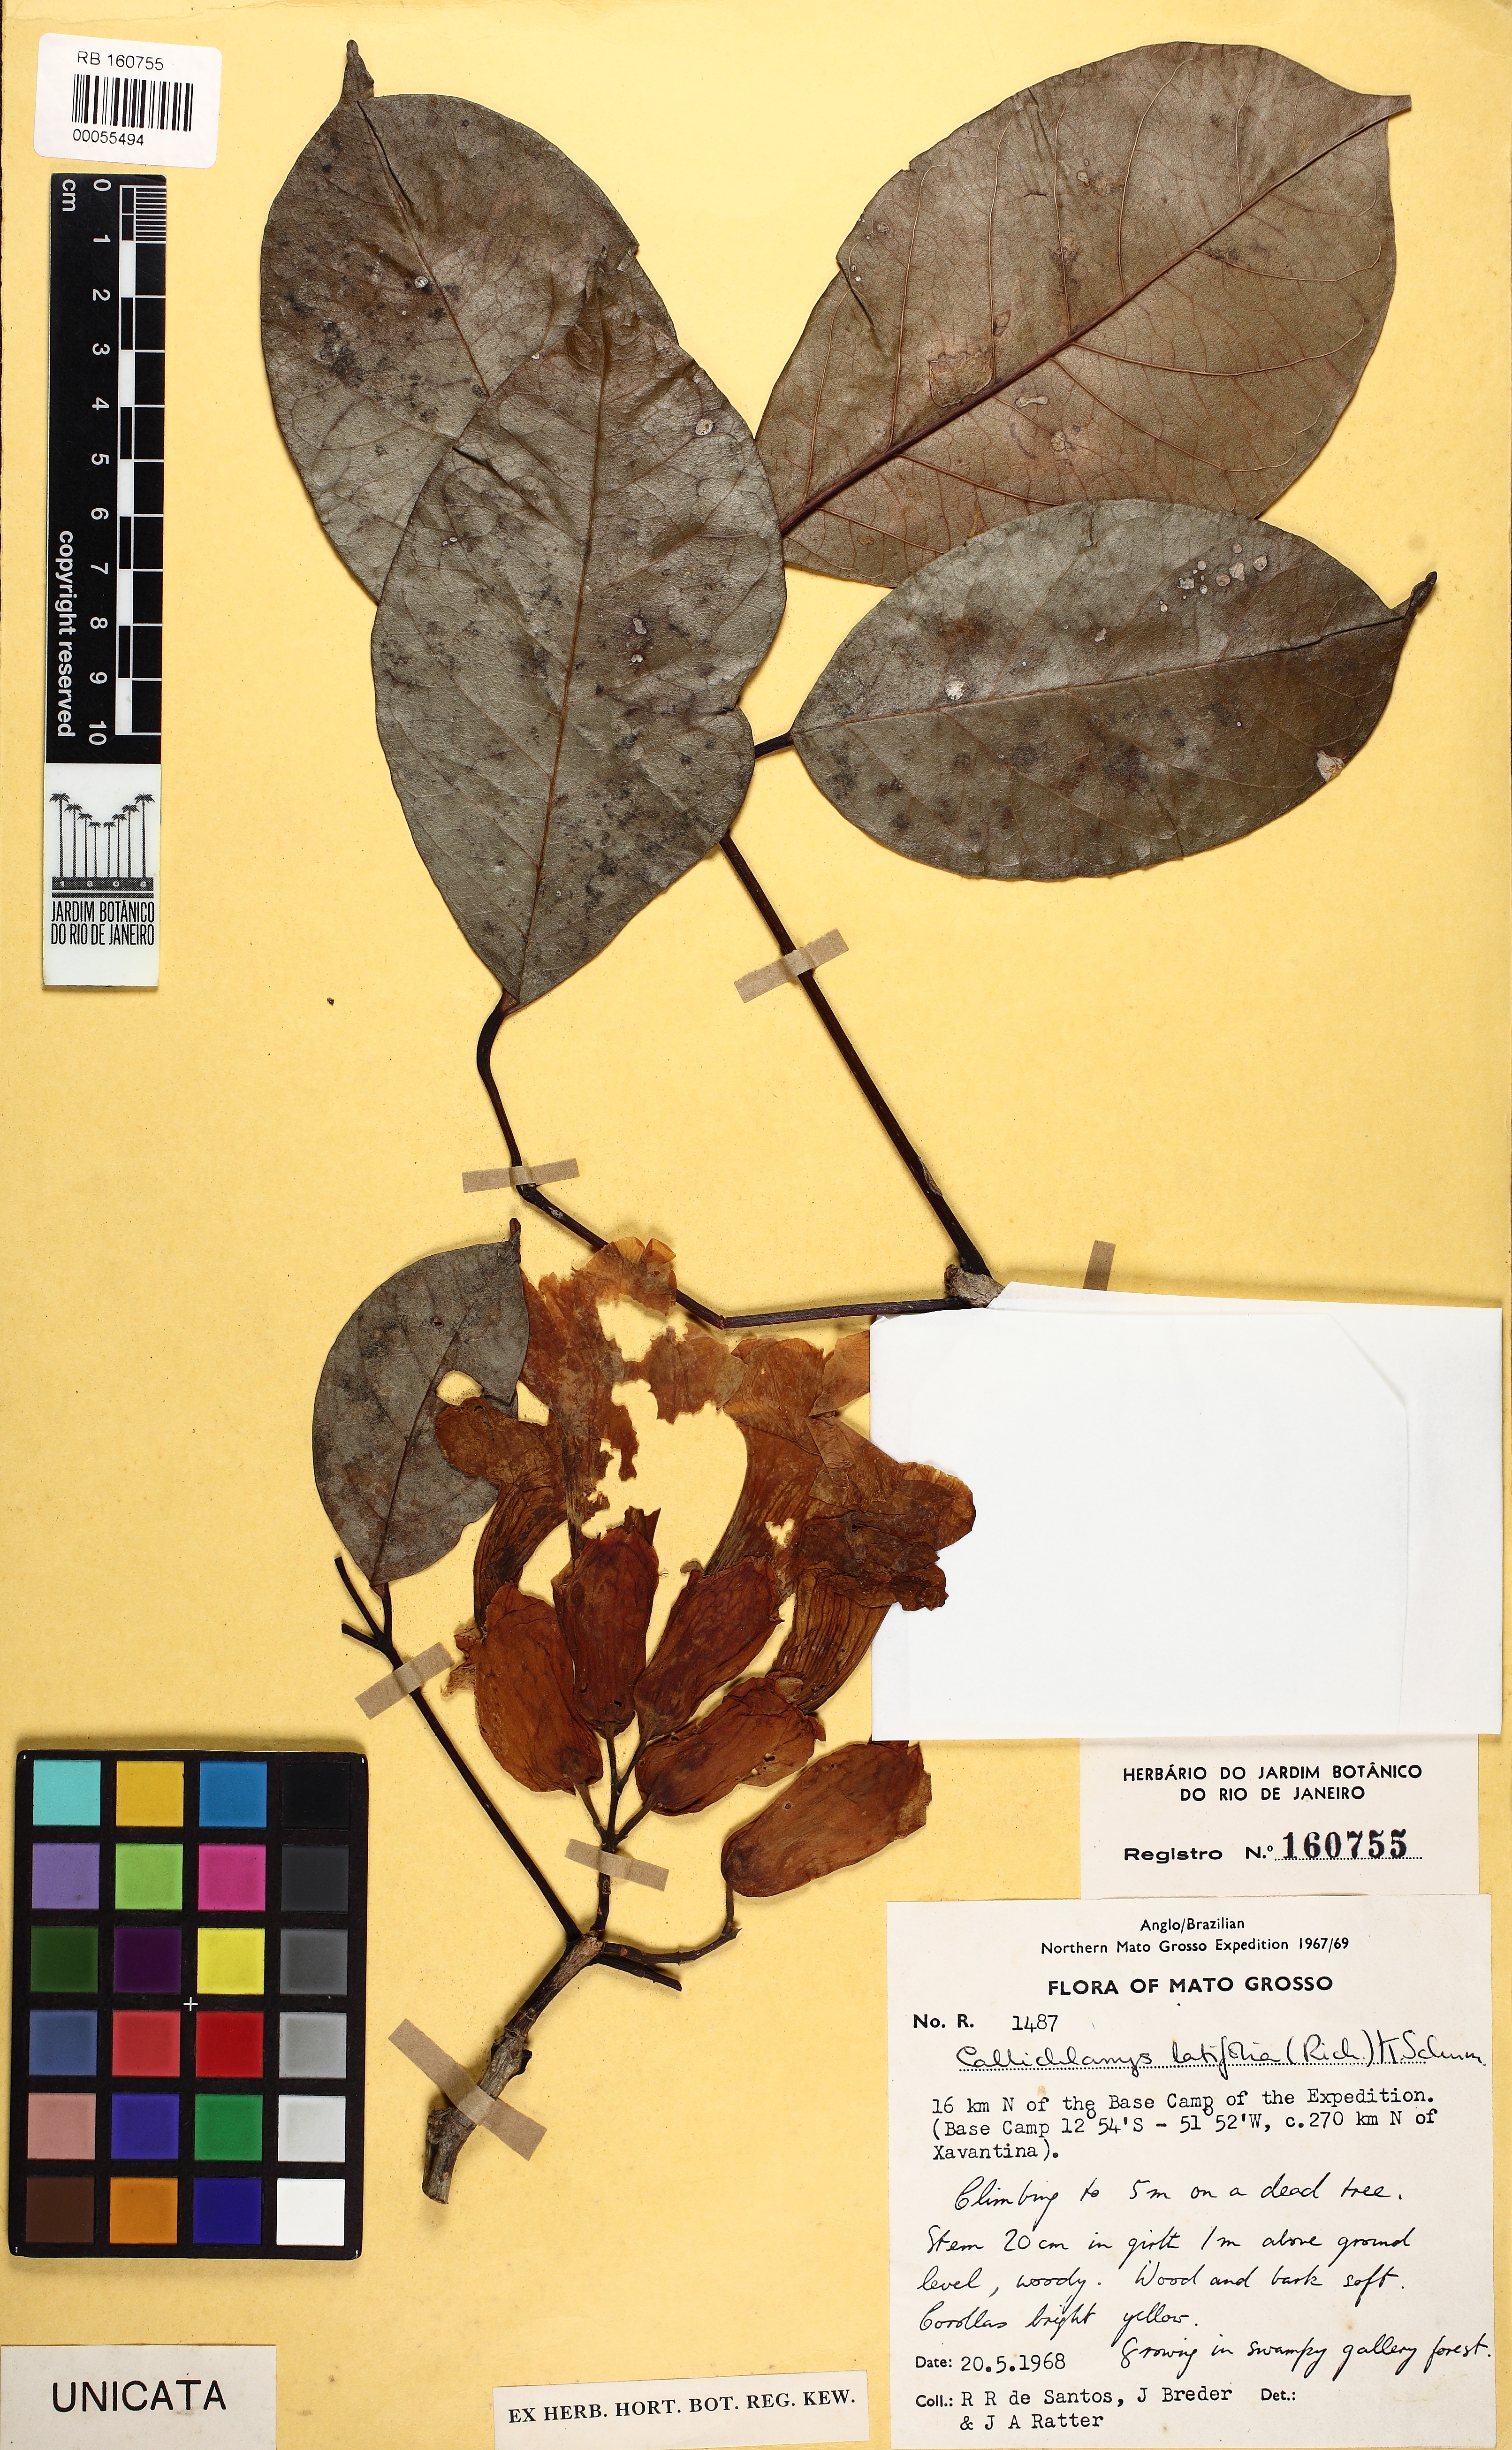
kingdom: Plantae
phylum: Tracheophyta
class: Magnoliopsida
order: Lamiales
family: Bignoniaceae
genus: Callichlamys
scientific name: Callichlamys latifolia
